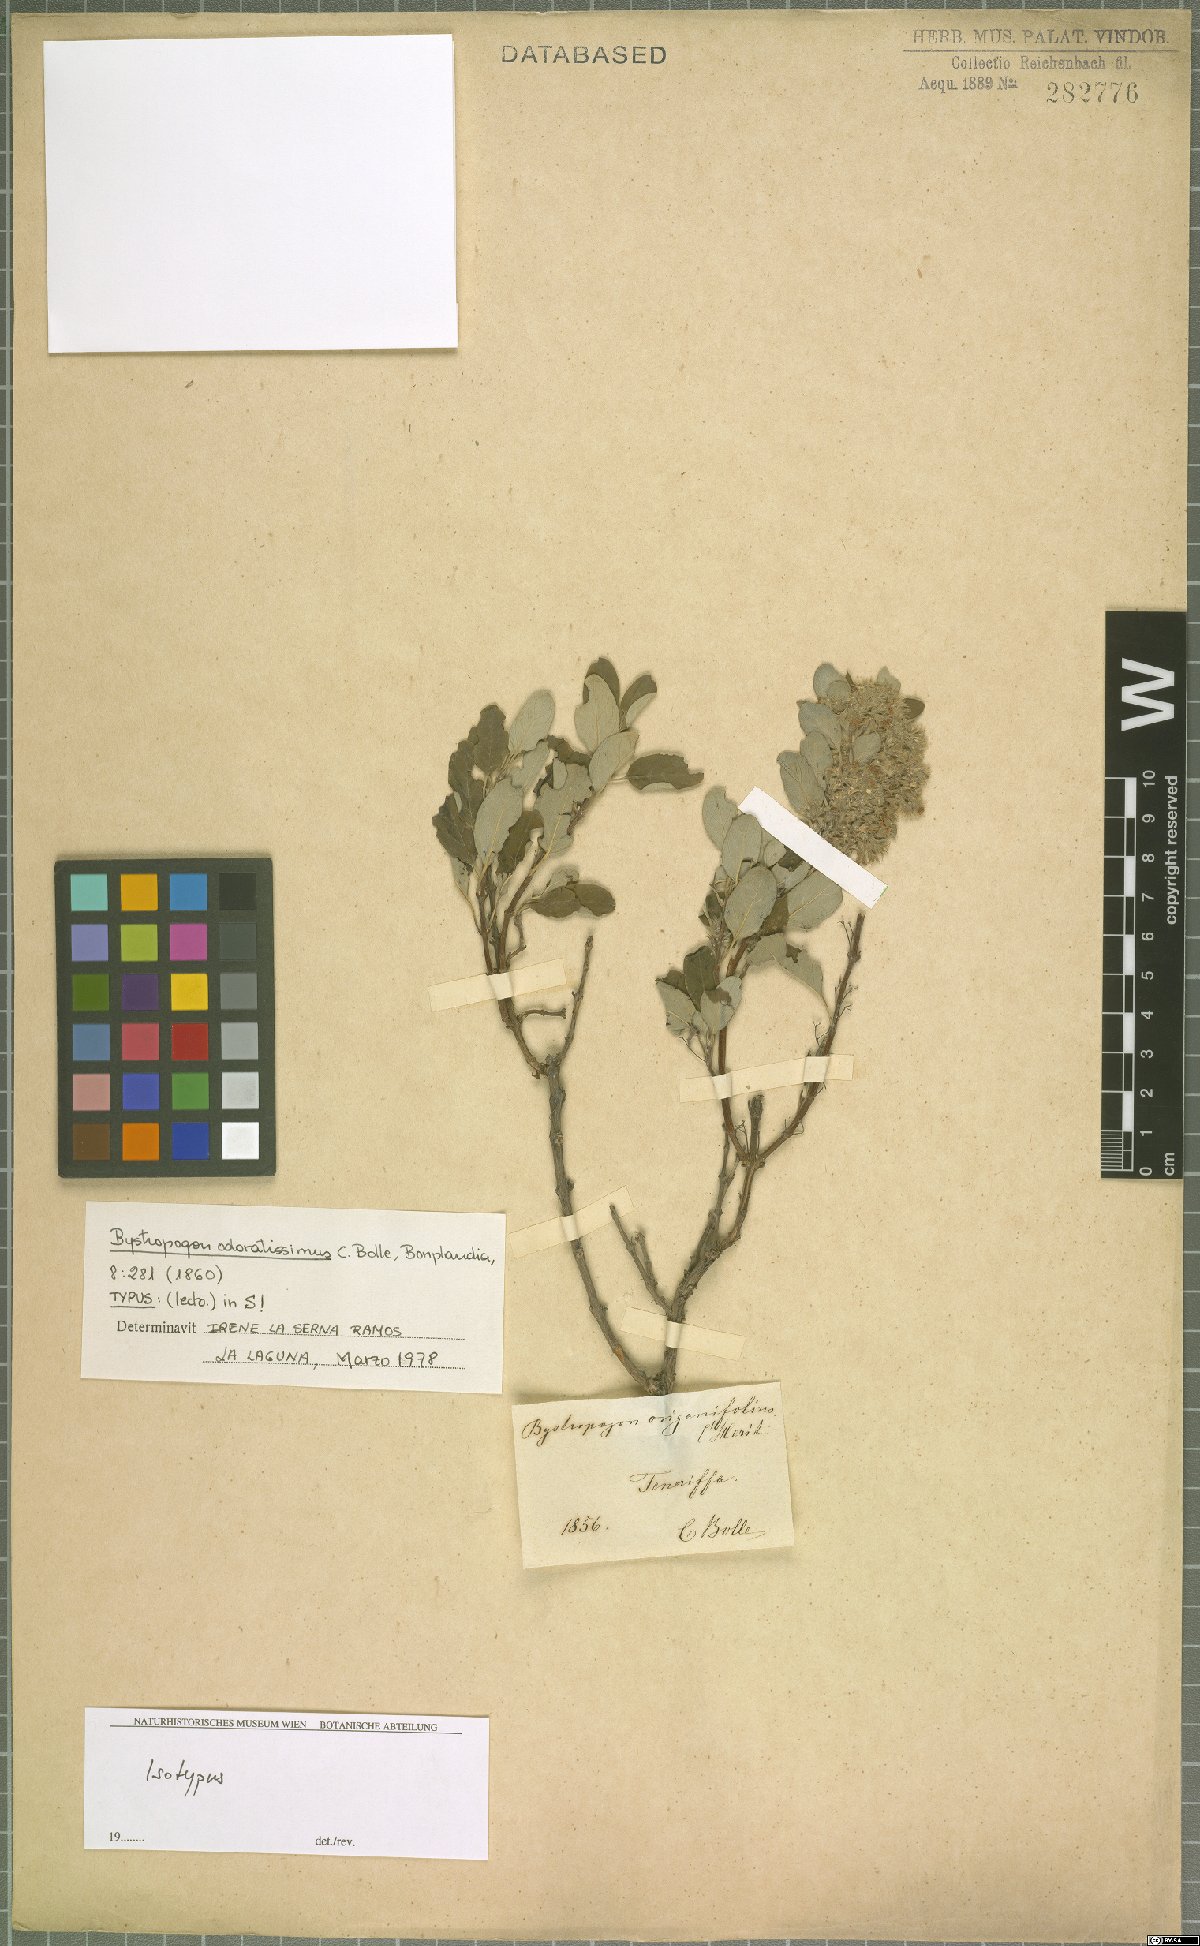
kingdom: Plantae
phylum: Tracheophyta
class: Magnoliopsida
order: Lamiales
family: Lamiaceae
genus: Bystropogon
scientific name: Bystropogon odoratissimus
